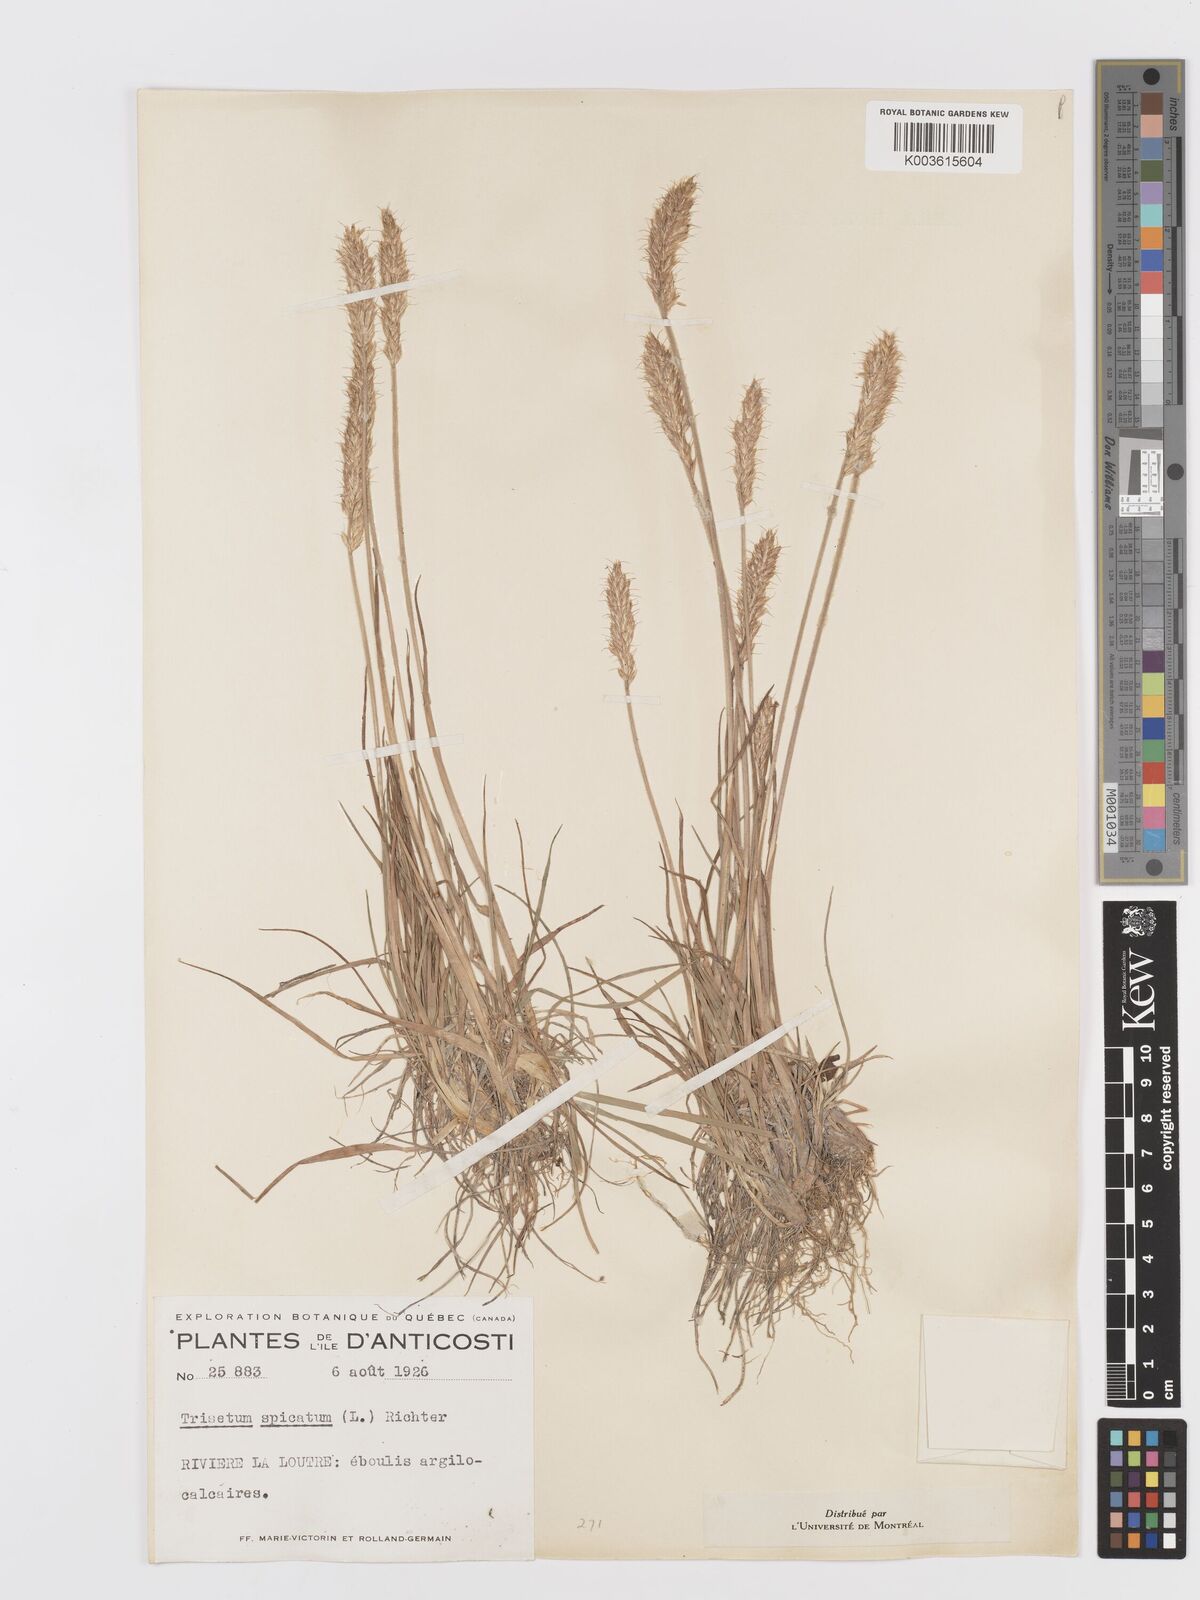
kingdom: Plantae
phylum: Tracheophyta
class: Liliopsida
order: Poales
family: Poaceae
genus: Koeleria
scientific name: Koeleria spicata
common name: Mountain trisetum
